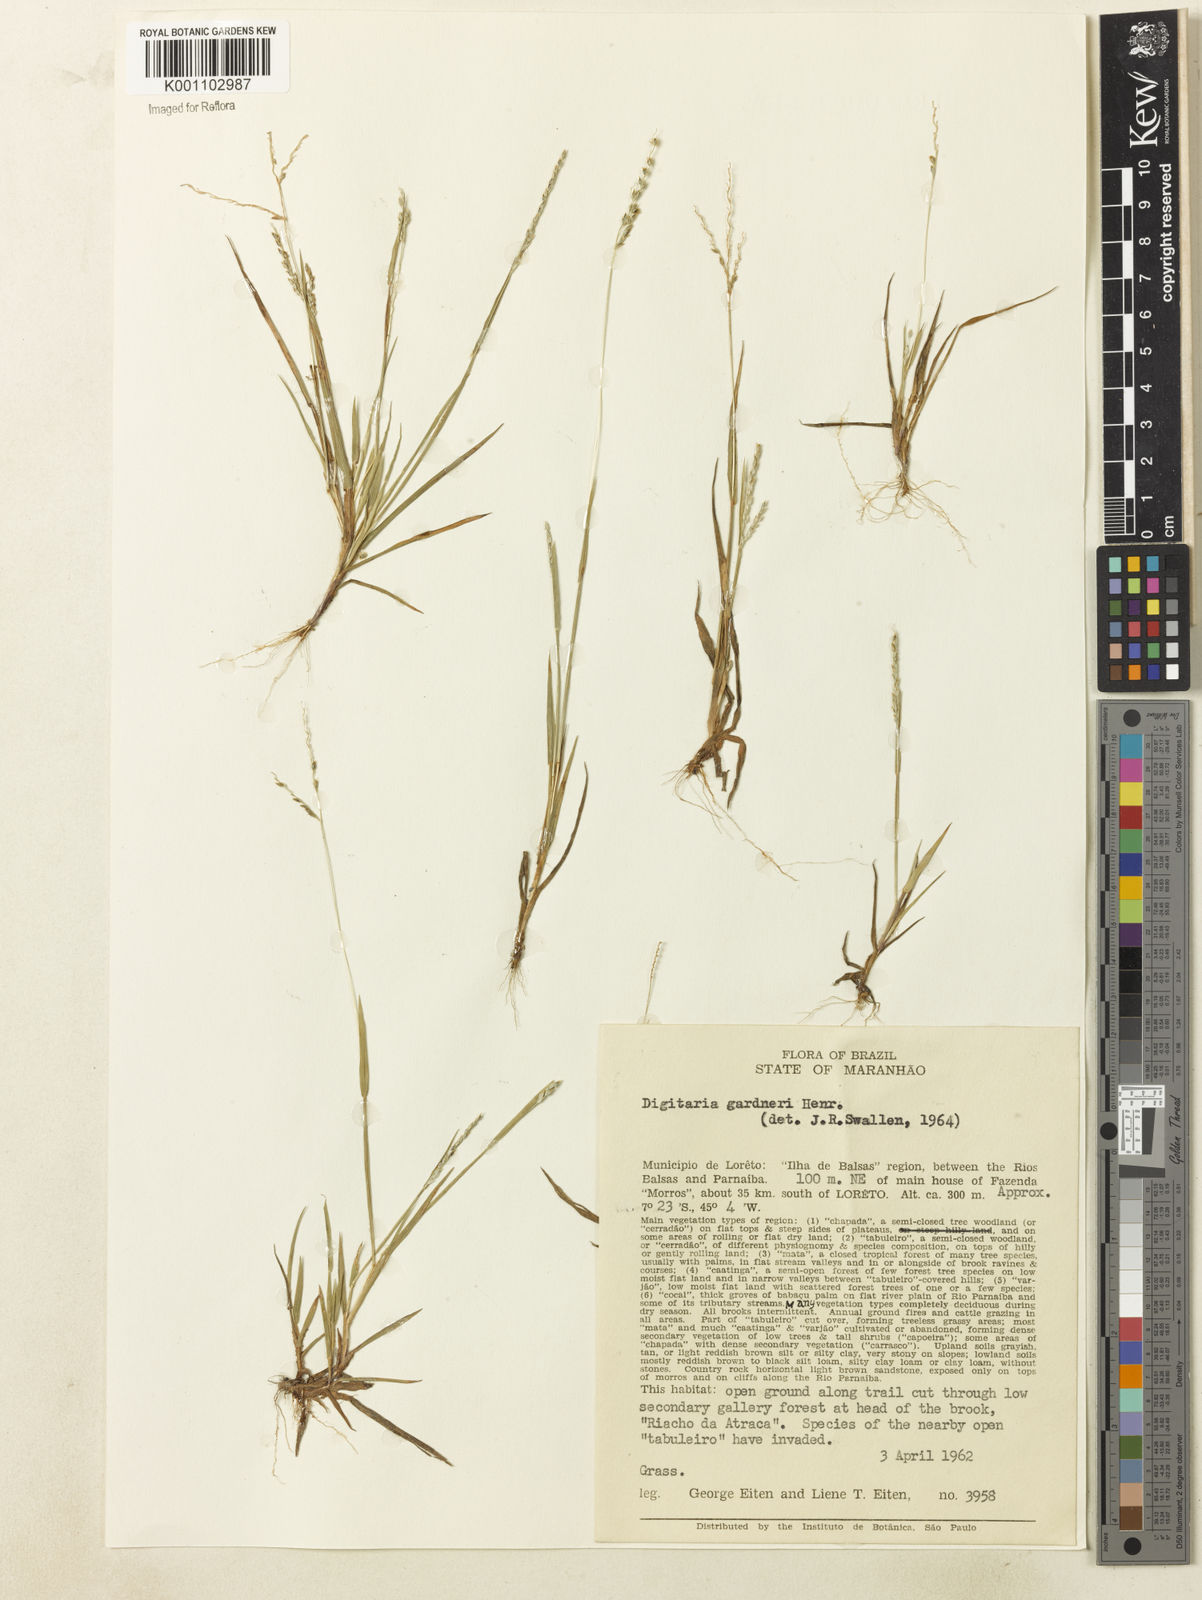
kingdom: Plantae
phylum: Tracheophyta
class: Liliopsida
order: Poales
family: Poaceae
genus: Digitaria
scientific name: Digitaria gardneri
